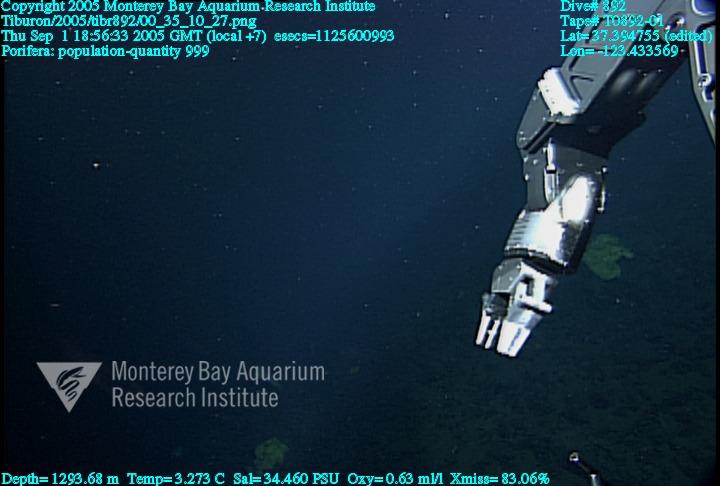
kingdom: Animalia
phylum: Porifera
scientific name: Porifera
